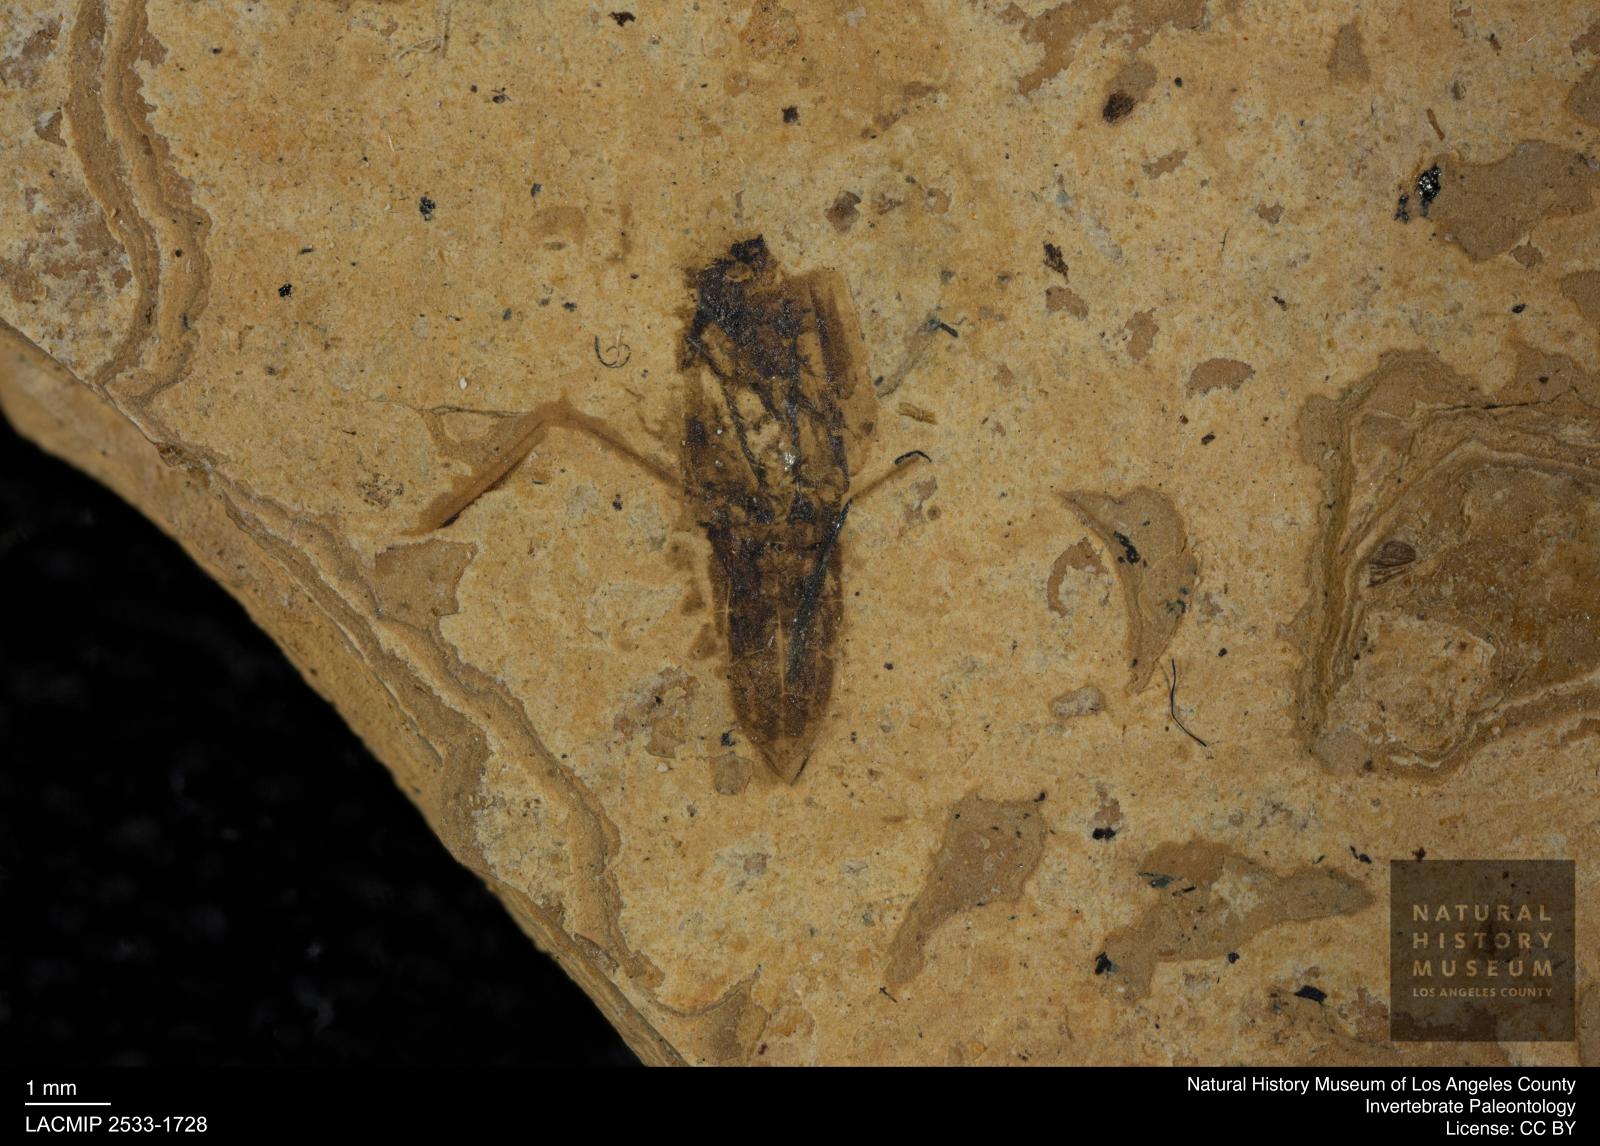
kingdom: Animalia
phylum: Arthropoda
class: Insecta
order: Hemiptera
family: Notonectidae
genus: Notonecta
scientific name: Notonecta
